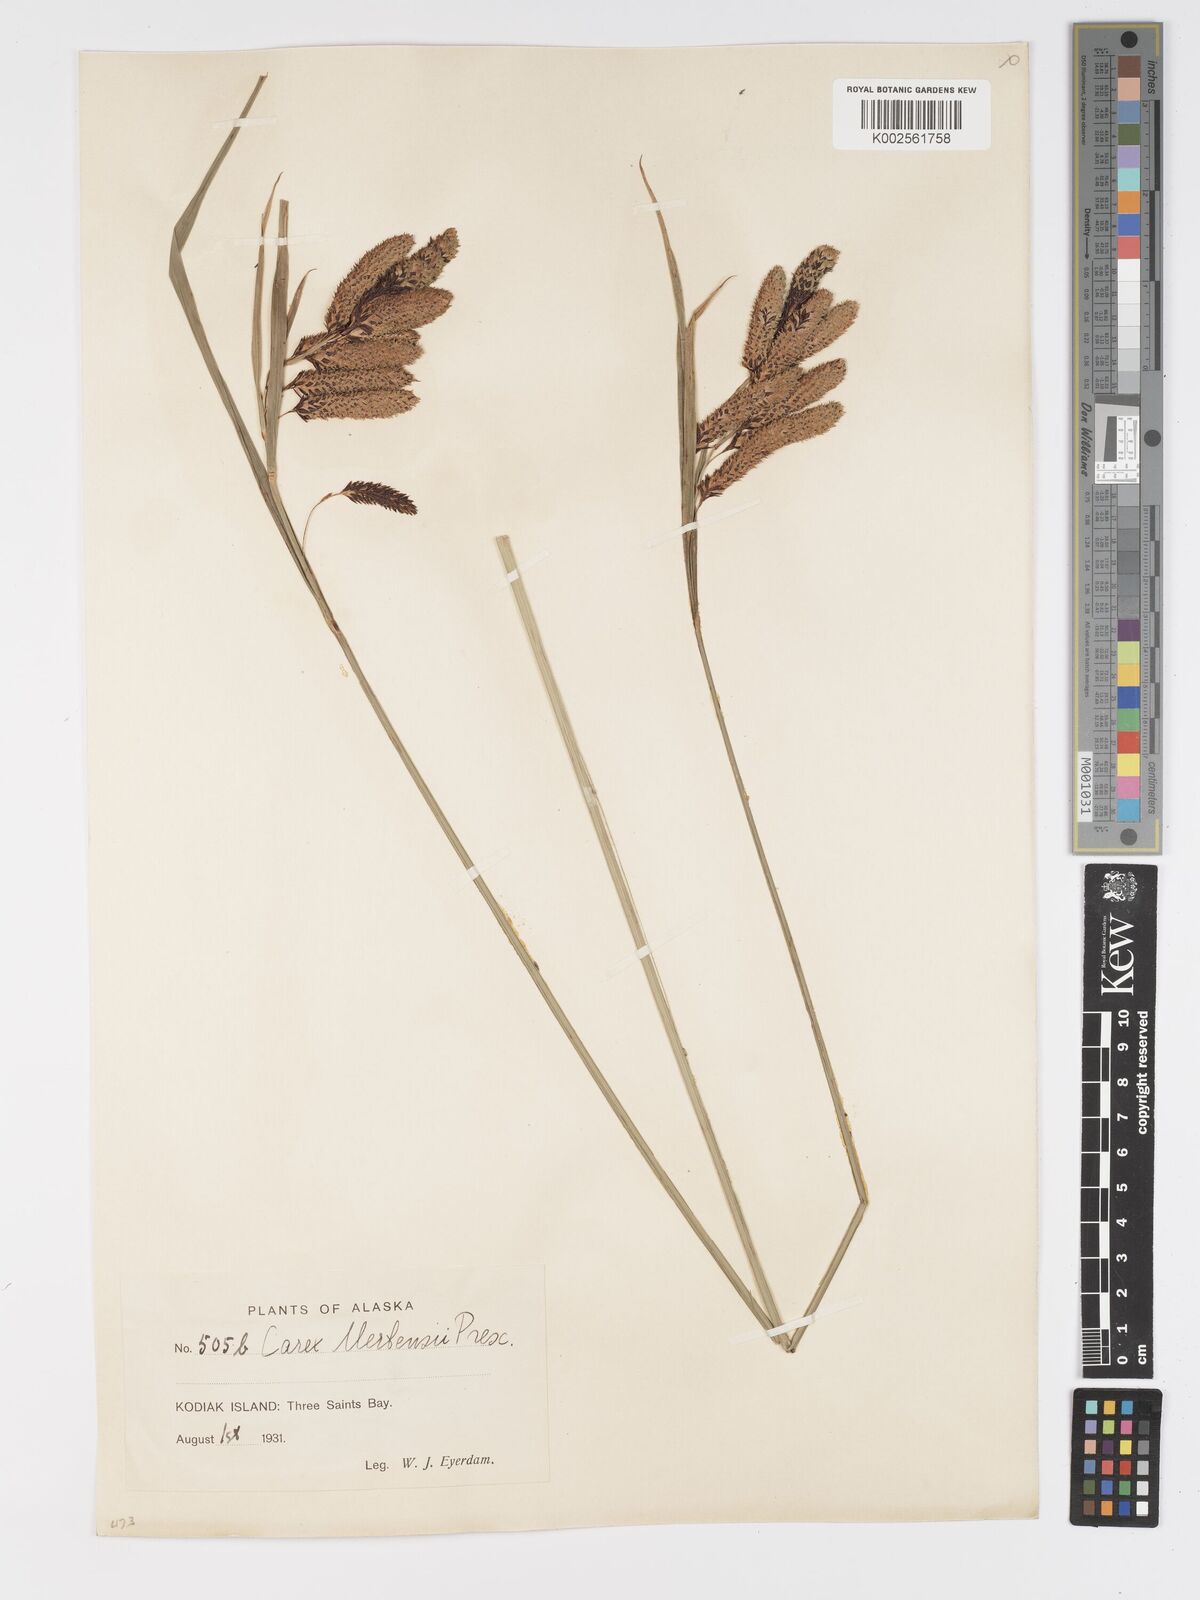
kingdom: Plantae
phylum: Tracheophyta
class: Liliopsida
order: Poales
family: Cyperaceae
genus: Carex
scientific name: Carex mertensii
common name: Mertens' sedge
